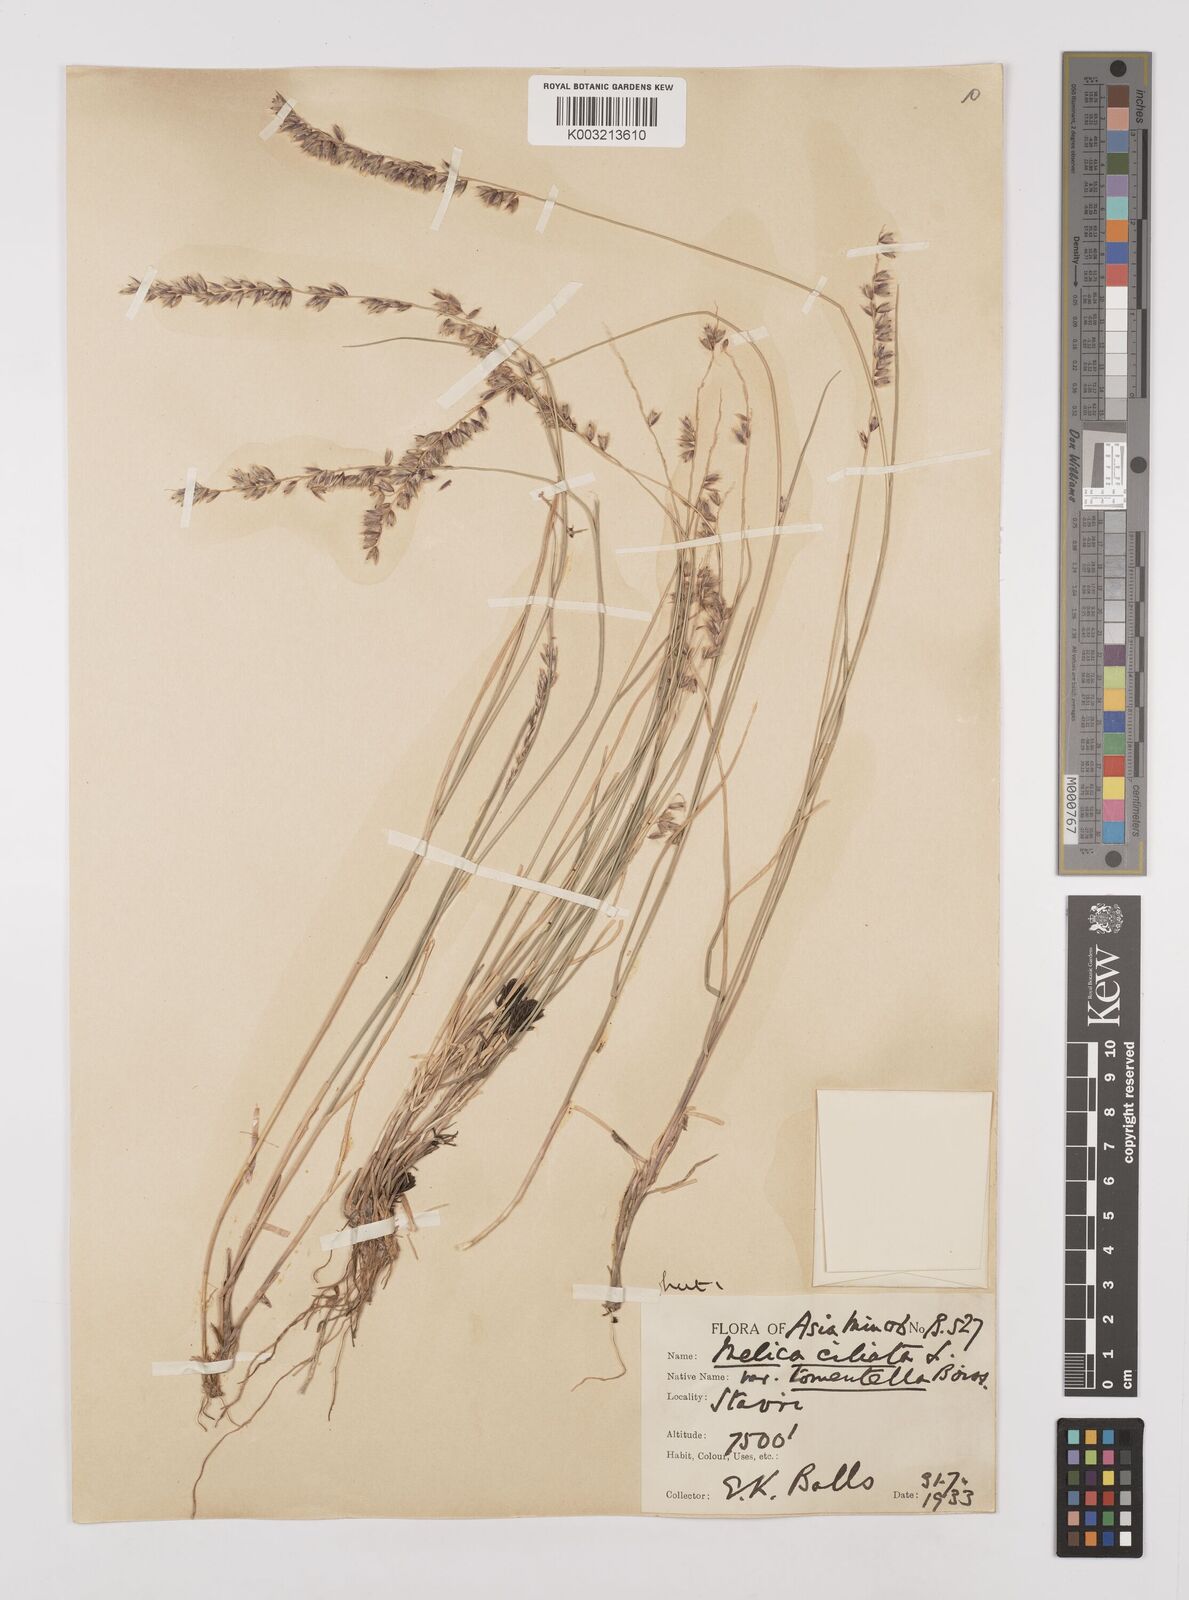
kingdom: Plantae
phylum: Tracheophyta
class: Liliopsida
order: Poales
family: Poaceae
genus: Melica
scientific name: Melica ciliata
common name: Hairy melicgrass
